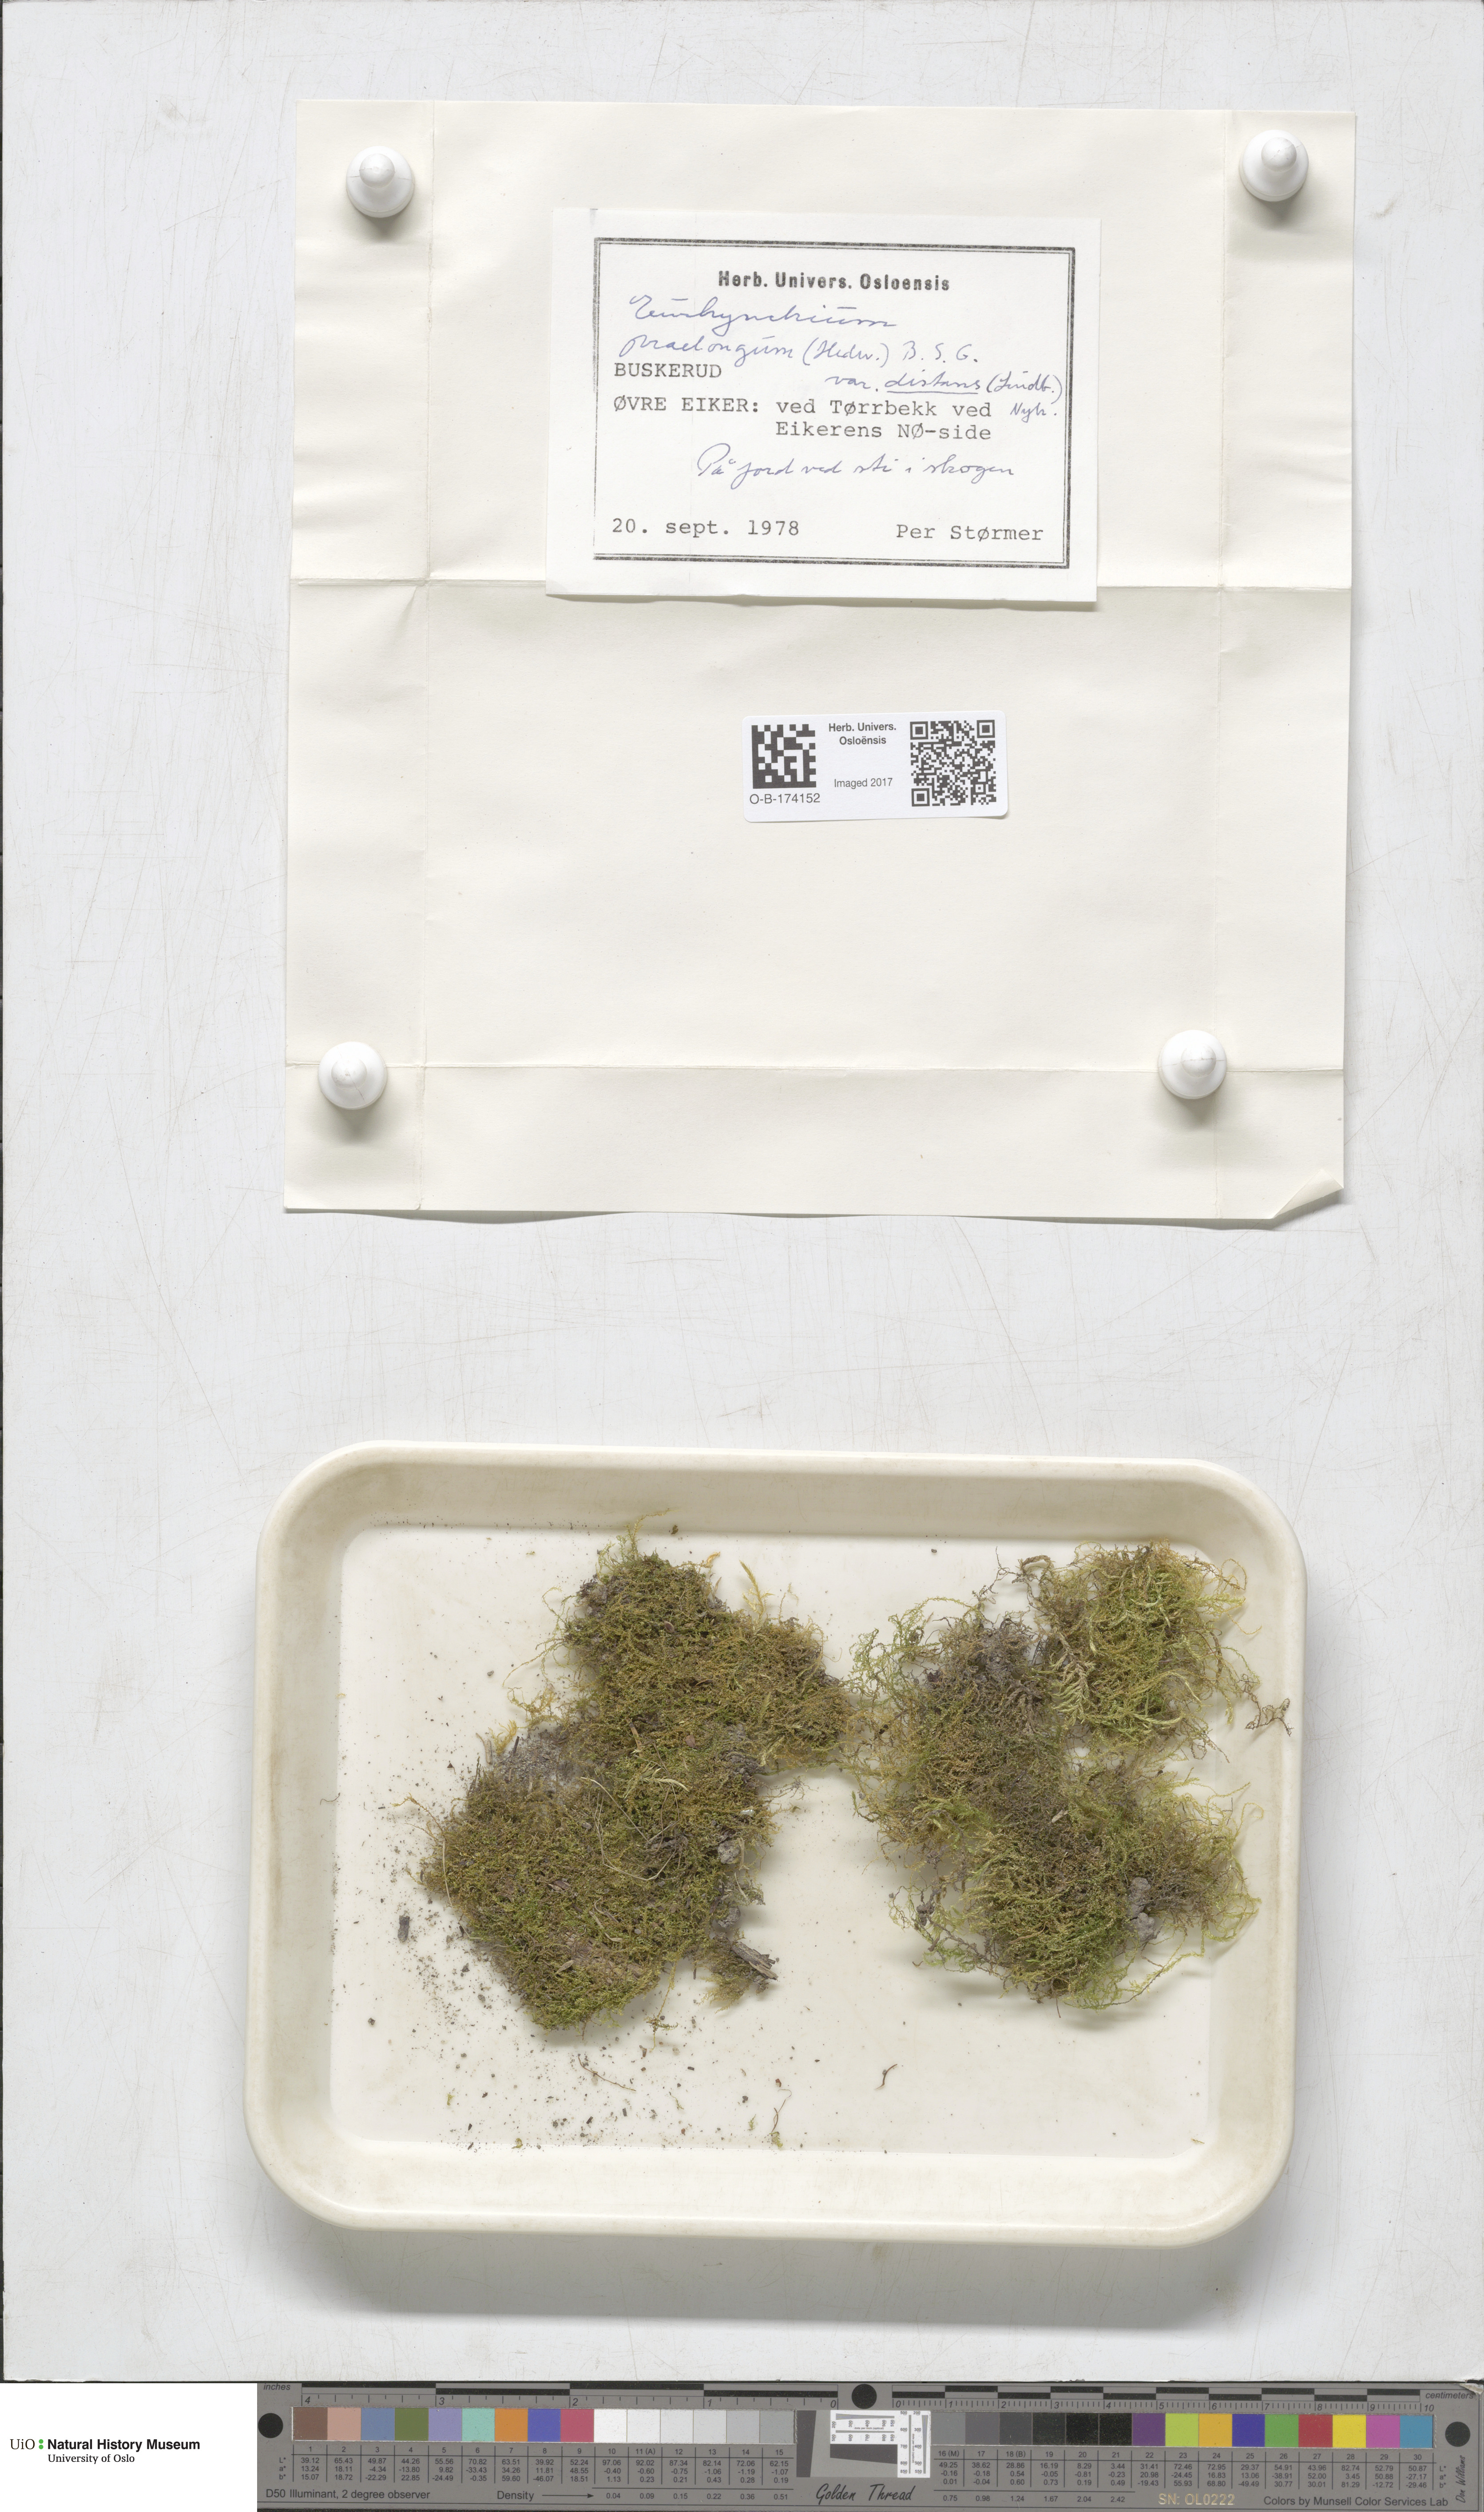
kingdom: Plantae
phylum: Bryophyta
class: Bryopsida
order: Hypnales
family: Brachytheciaceae
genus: Kindbergia
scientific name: Kindbergia praelonga
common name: Slender beaked moss
